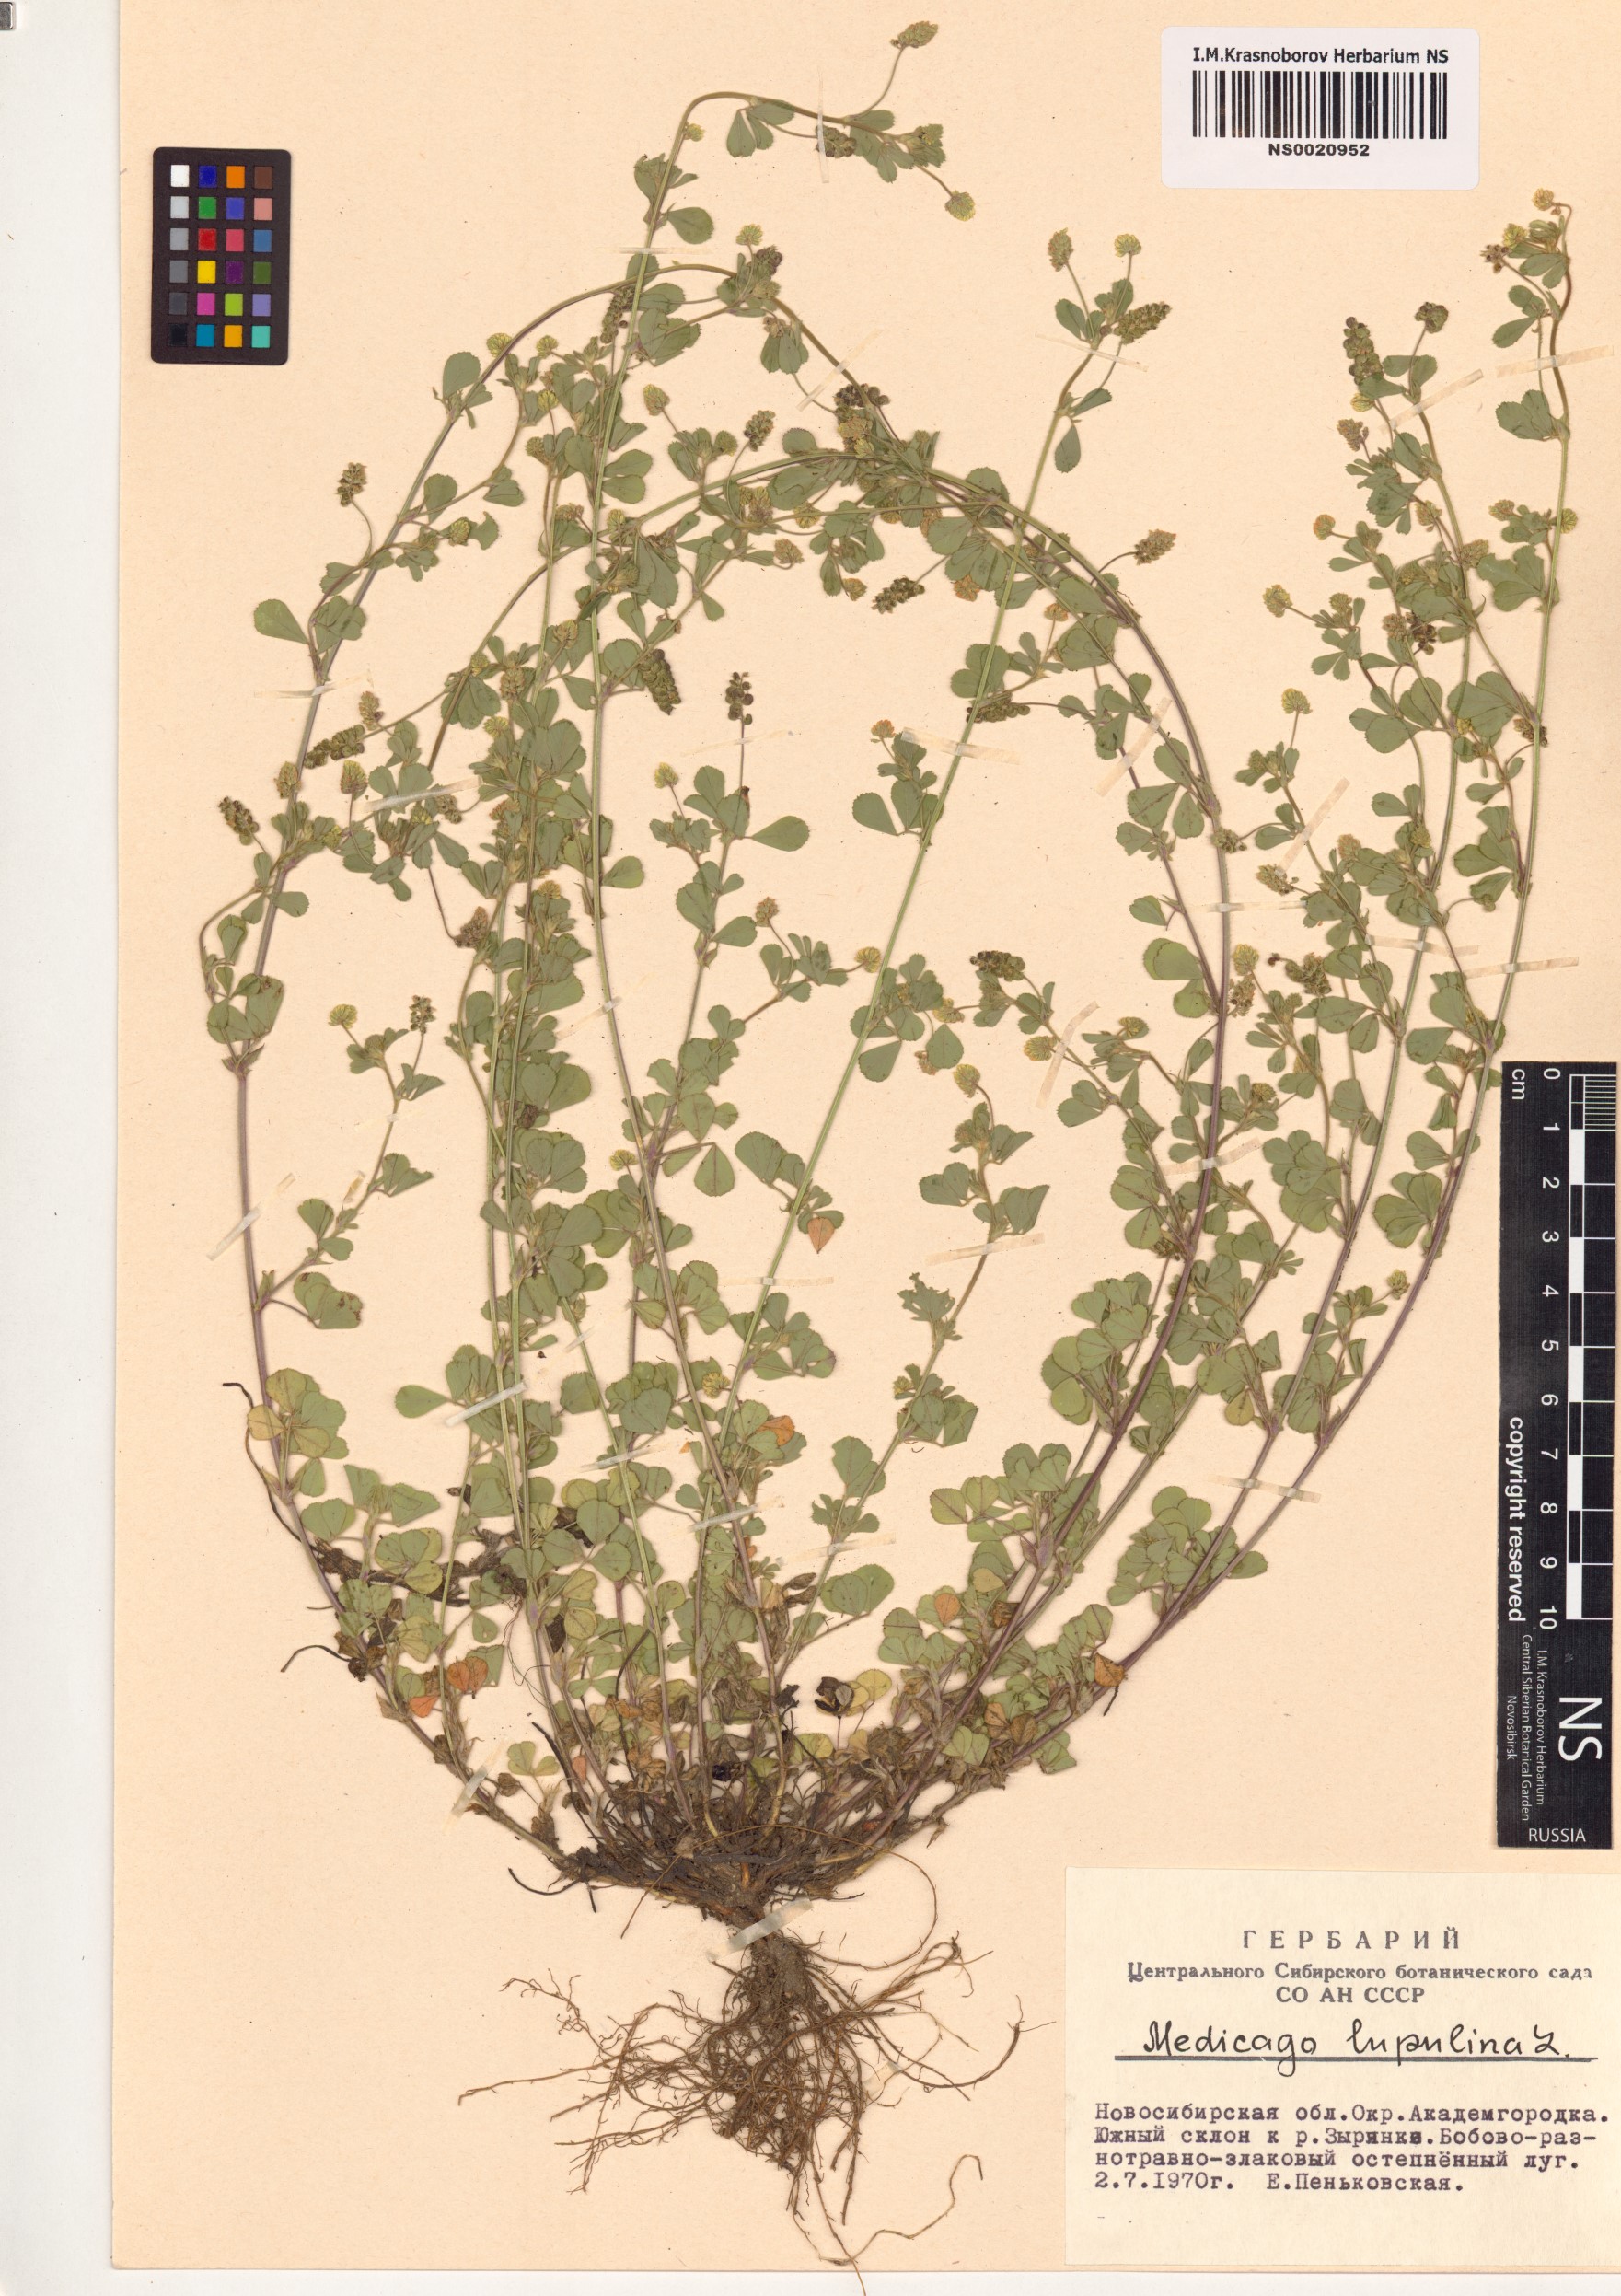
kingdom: Plantae
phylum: Tracheophyta
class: Magnoliopsida
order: Fabales
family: Fabaceae
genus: Medicago
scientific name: Medicago lupulina
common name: Black medick
